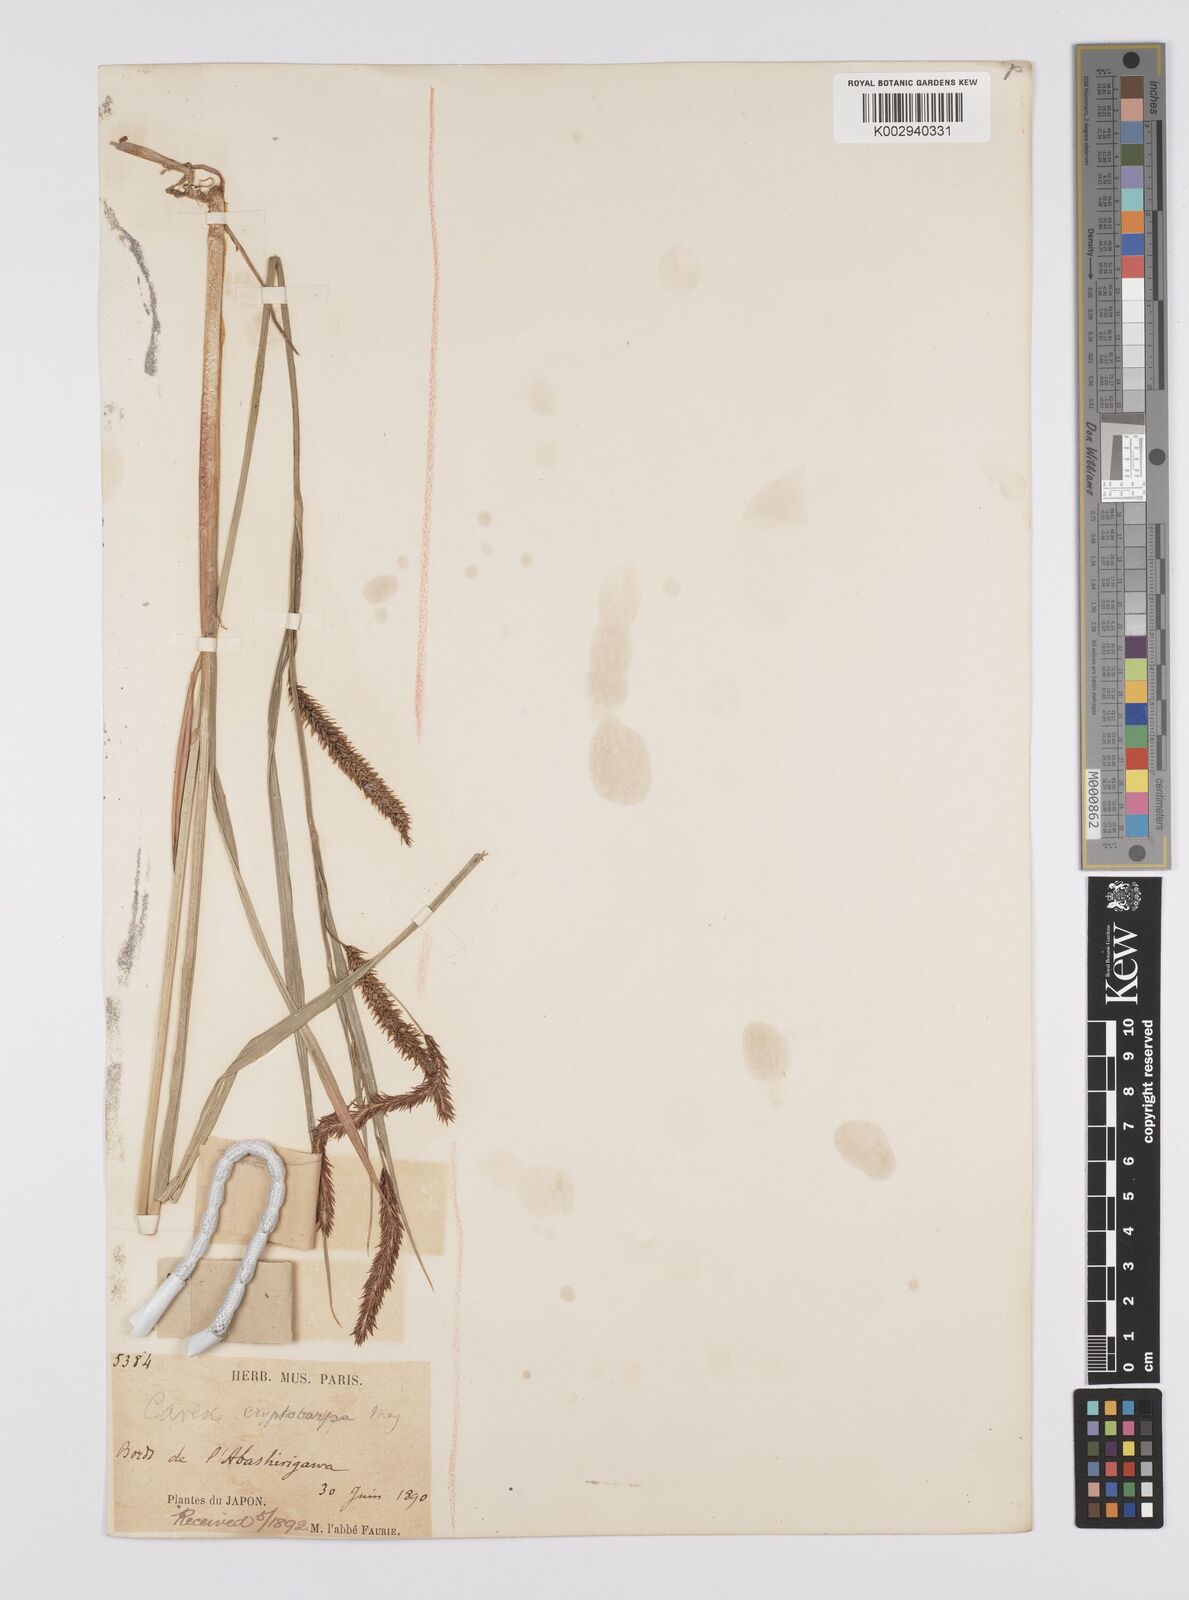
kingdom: Plantae
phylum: Tracheophyta
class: Liliopsida
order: Poales
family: Cyperaceae
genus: Carex
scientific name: Carex lyngbyei
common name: Lyngbye's sedge
